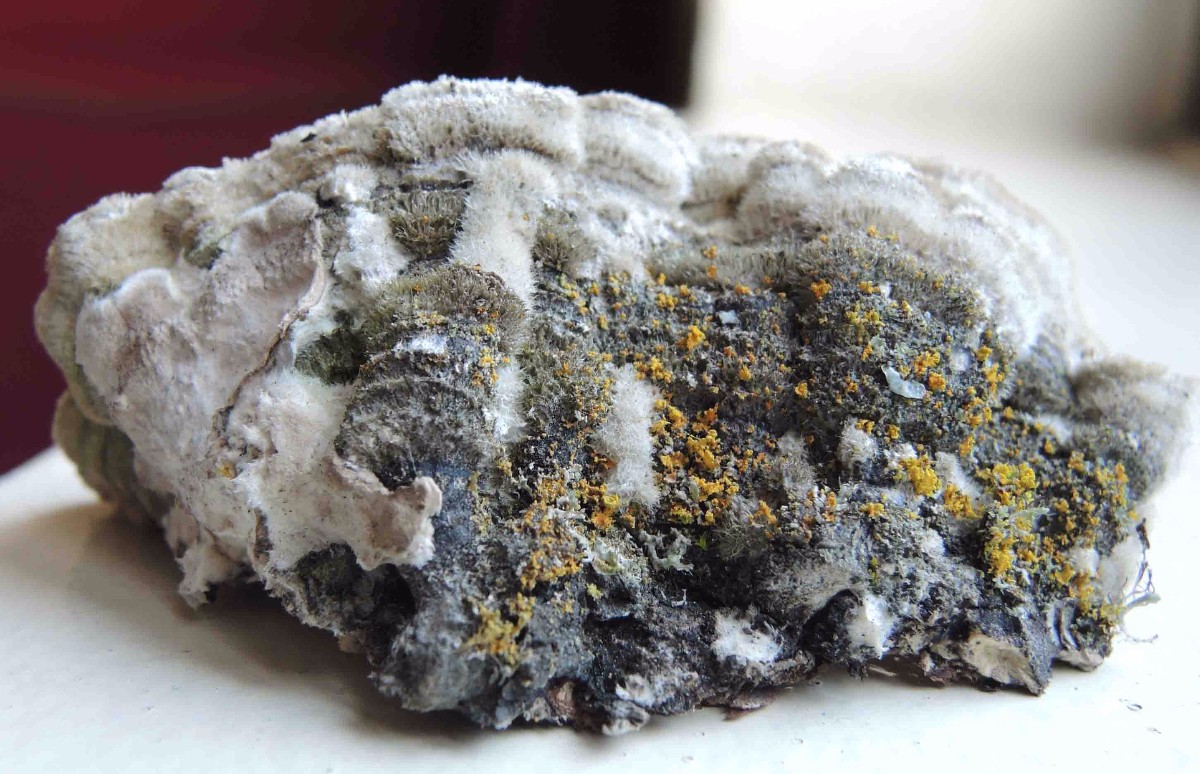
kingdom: Fungi
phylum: Basidiomycota
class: Agaricomycetes
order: Polyporales
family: Cerrenaceae
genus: Cerrena
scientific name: Cerrena unicolor
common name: ensfarvet læderporesvamp
